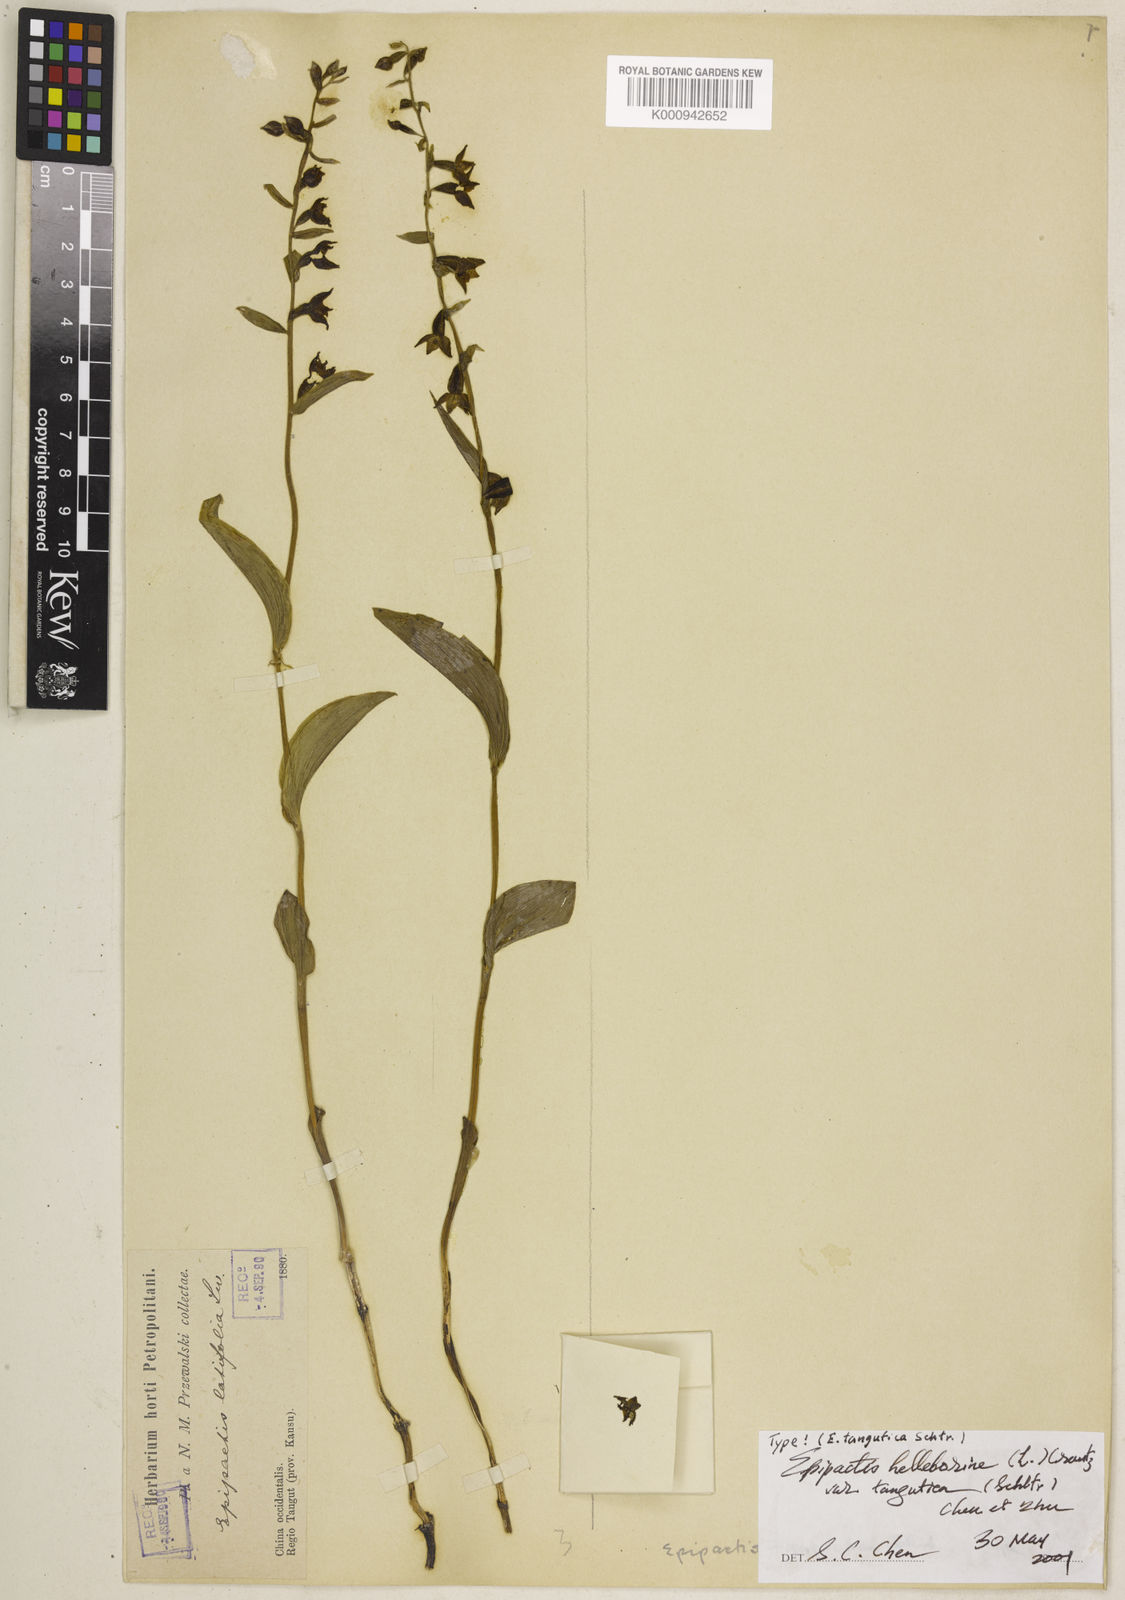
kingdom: Plantae
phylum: Tracheophyta
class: Liliopsida
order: Asparagales
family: Orchidaceae
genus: Epipactis
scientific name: Epipactis helleborine
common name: Broad-leaved helleborine
